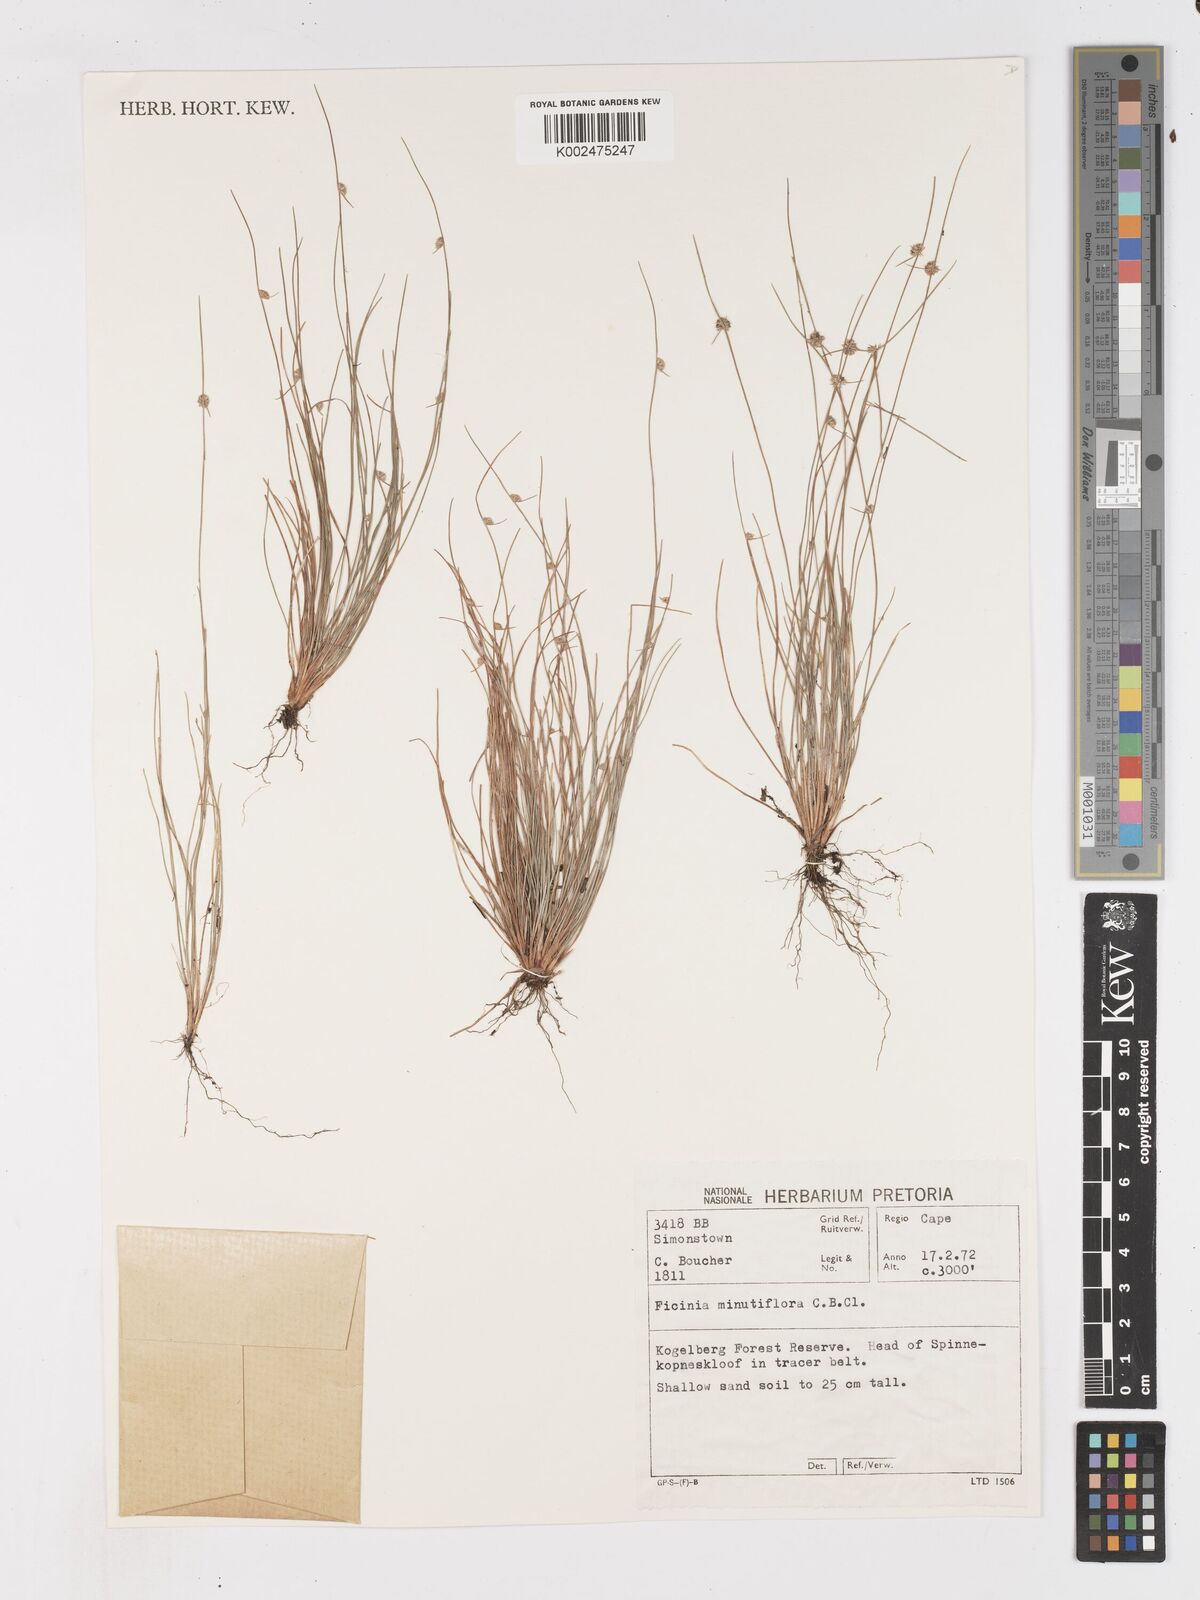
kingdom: Plantae
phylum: Tracheophyta
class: Liliopsida
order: Poales
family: Cyperaceae
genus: Ficinia
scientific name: Ficinia minutiflora
